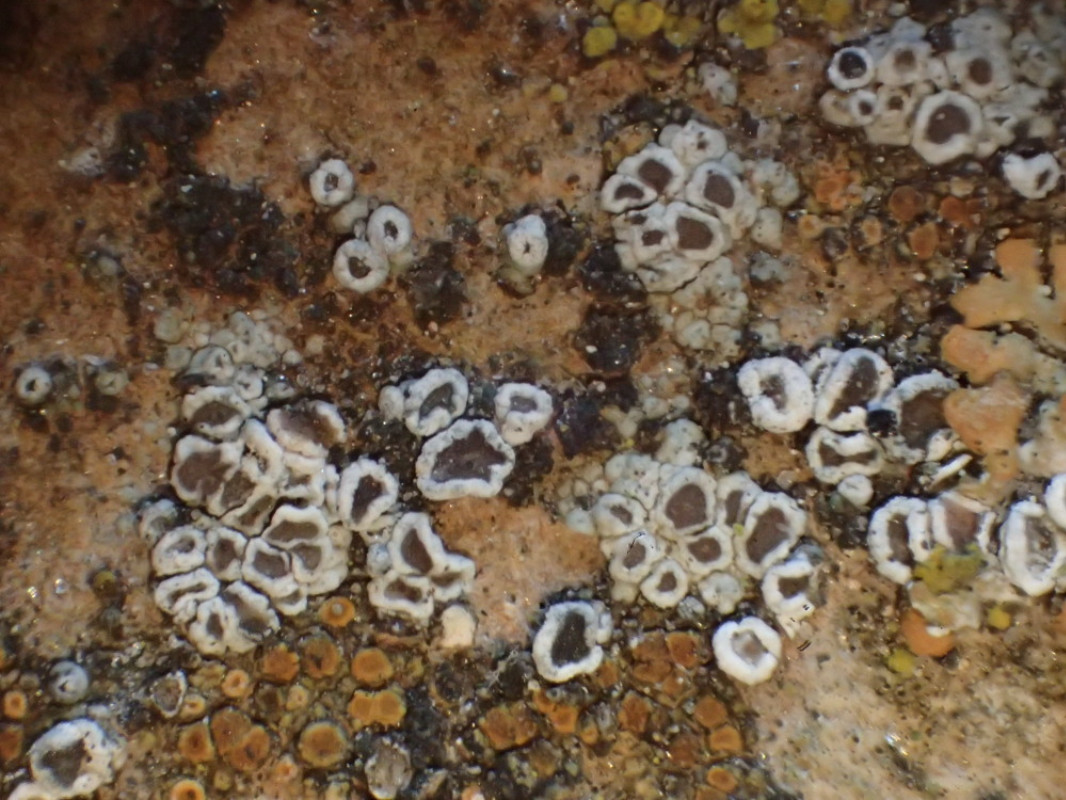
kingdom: Fungi
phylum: Ascomycota
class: Lecanoromycetes
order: Lecanorales
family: Lecanoraceae
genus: Myriolecis
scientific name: Myriolecis crenulata
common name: beton-kantskivelav
